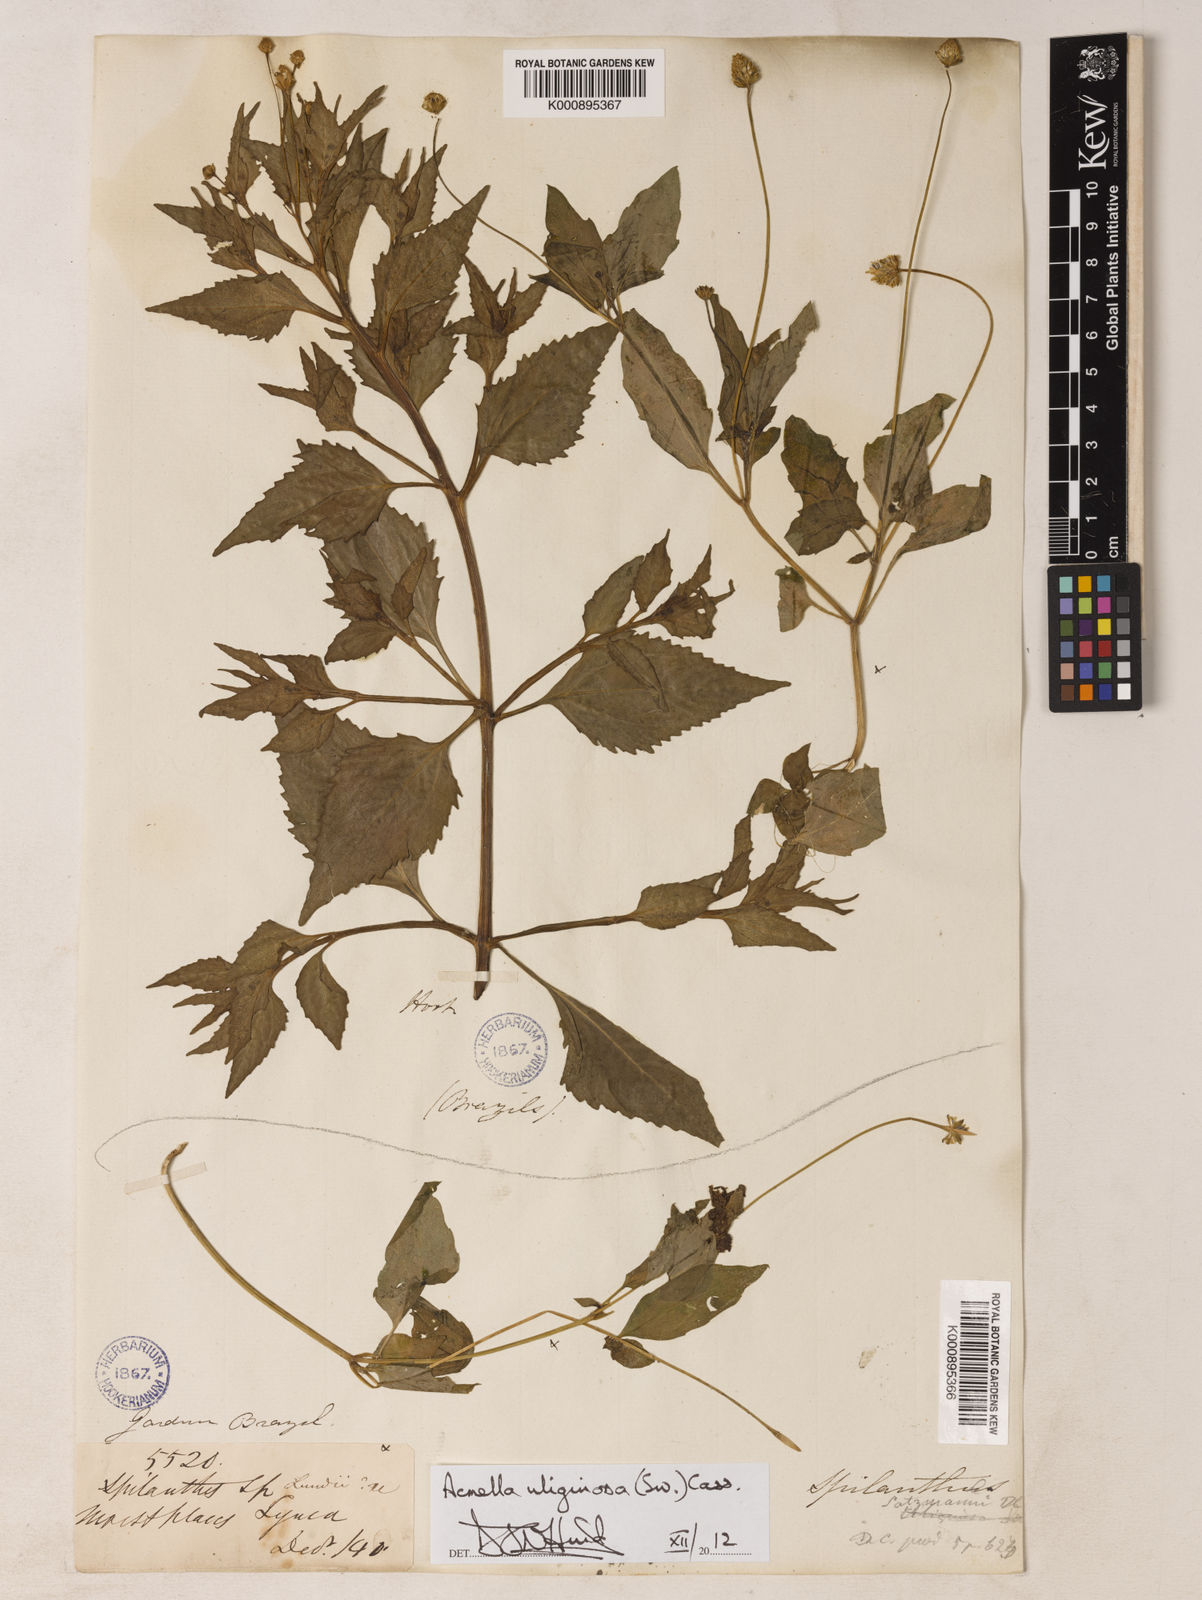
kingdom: Plantae
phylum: Tracheophyta
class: Magnoliopsida
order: Asterales
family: Asteraceae
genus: Acmella
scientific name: Acmella uliginosa
